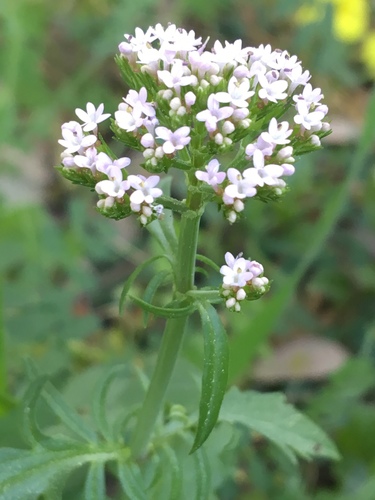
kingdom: Plantae
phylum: Tracheophyta
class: Magnoliopsida
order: Dipsacales
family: Caprifoliaceae
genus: Centranthus
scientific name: Centranthus calcitrapae
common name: Annual valerian
